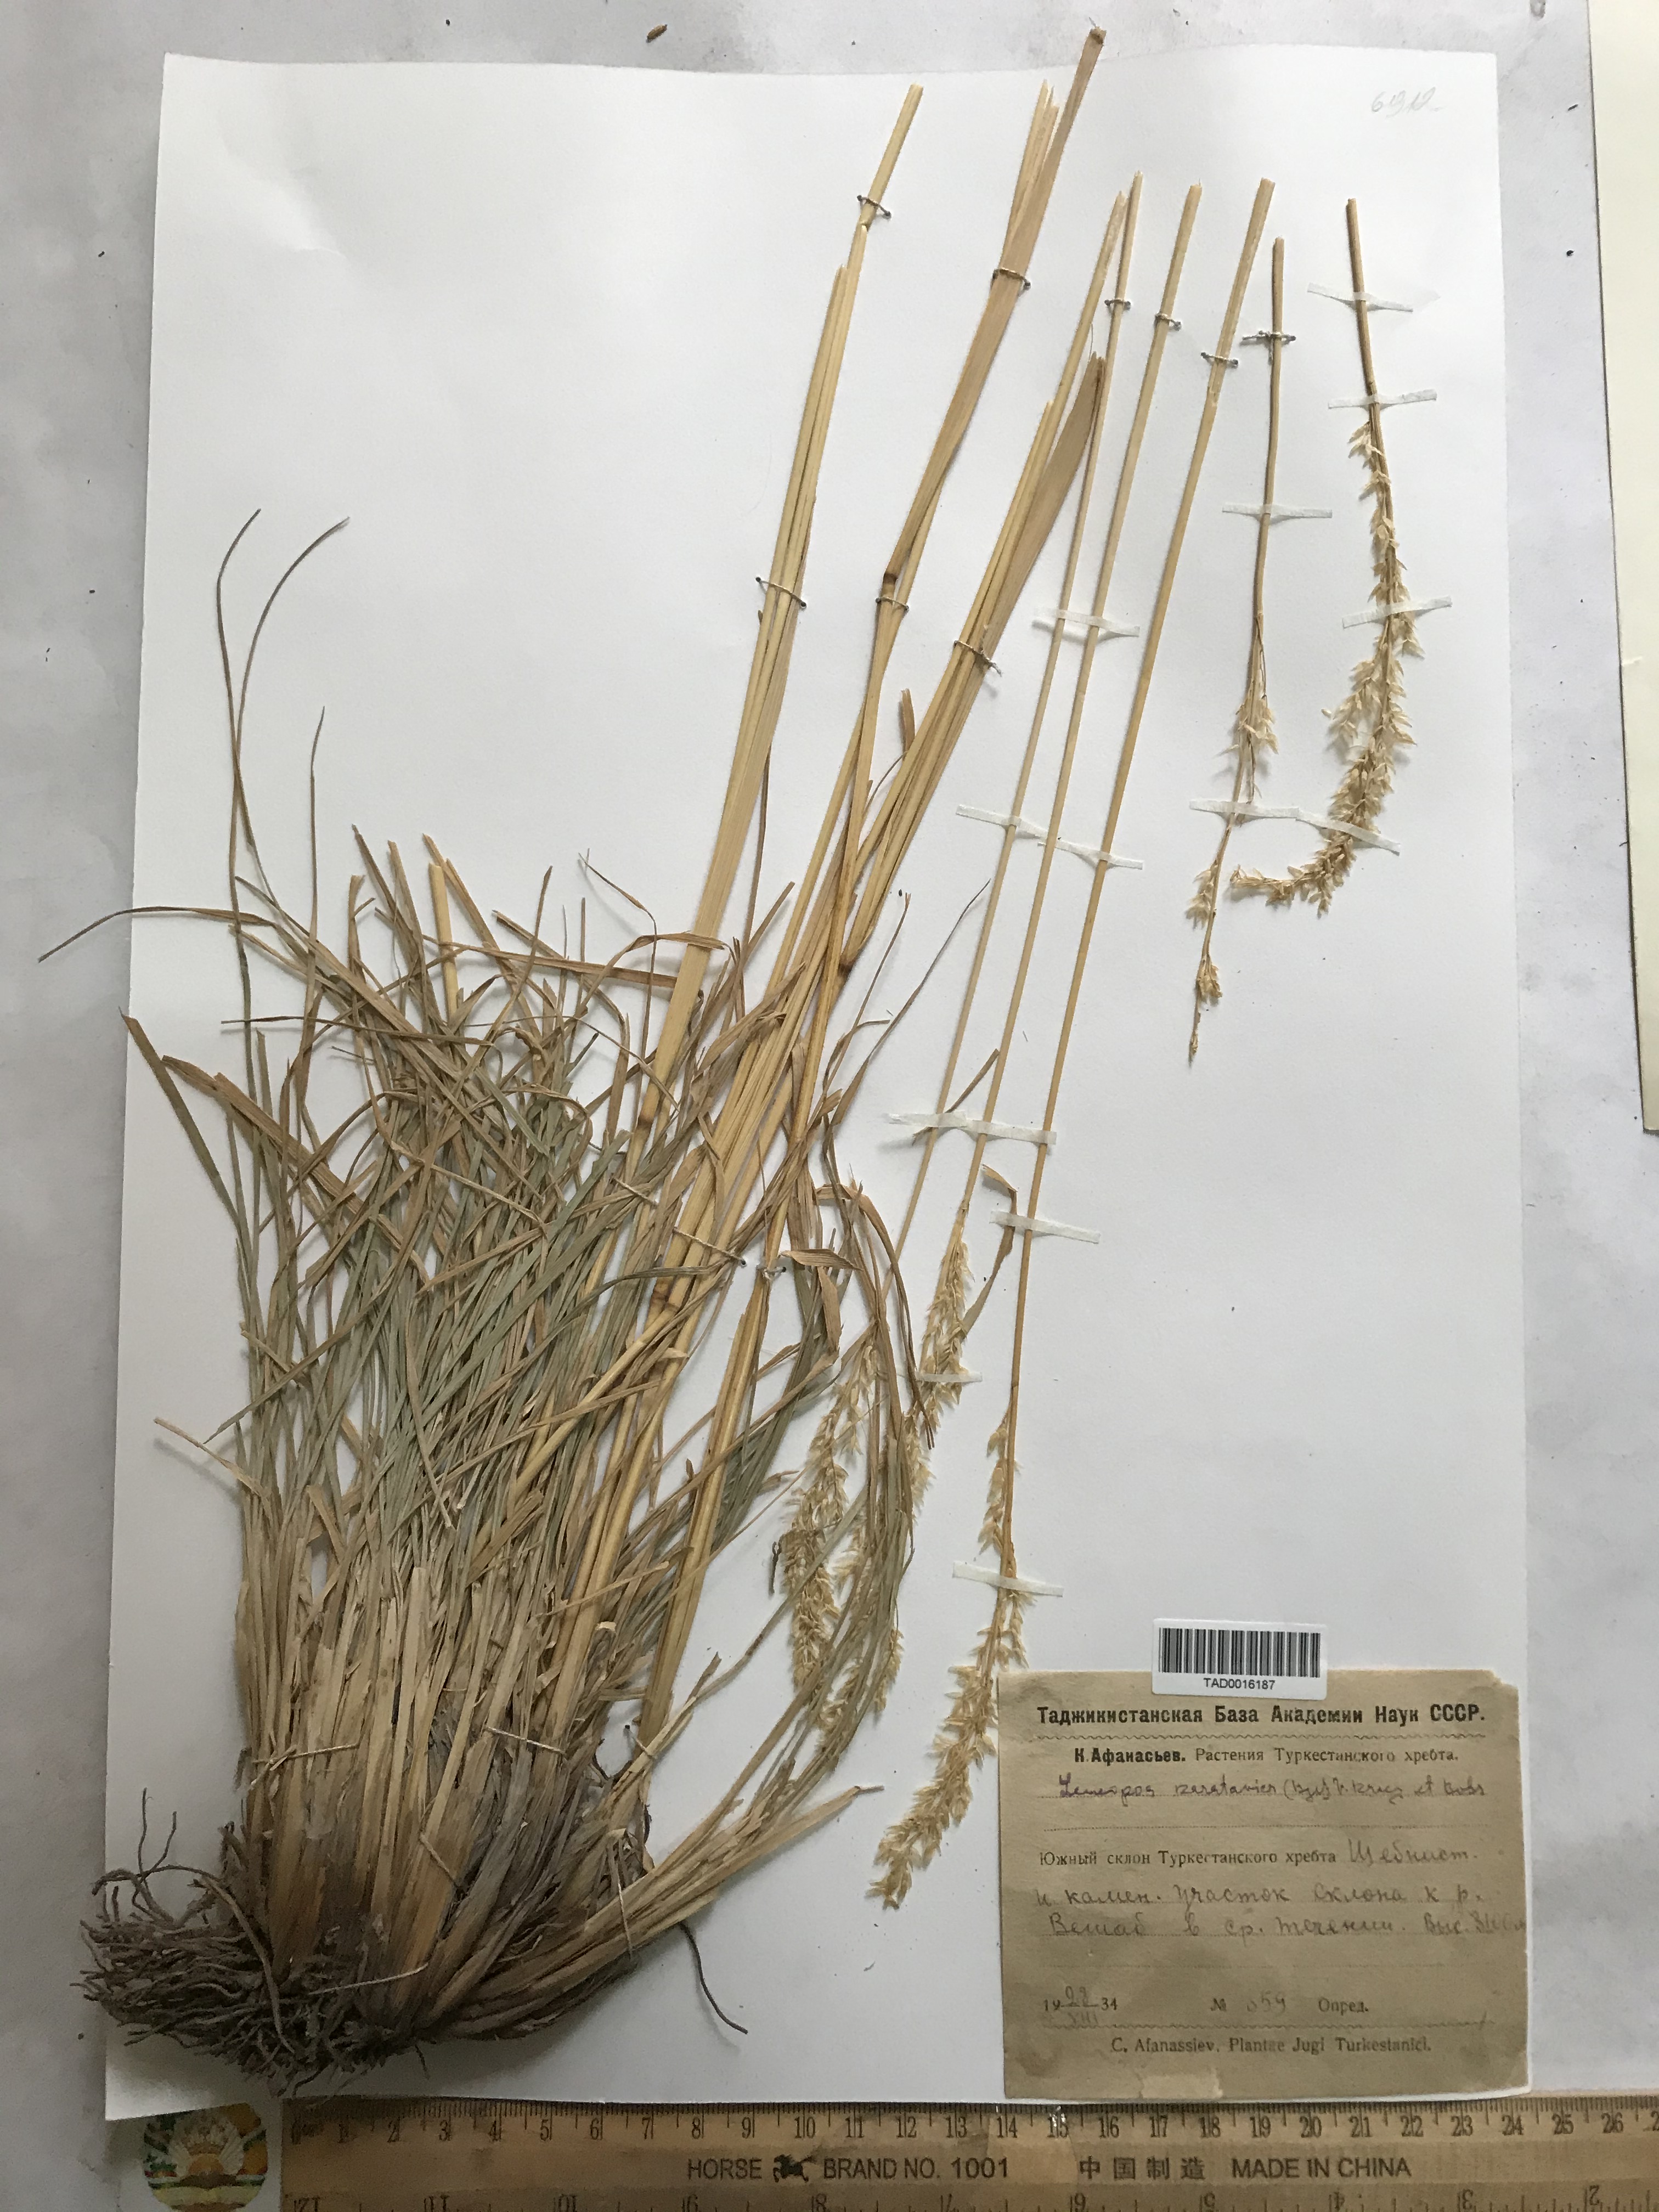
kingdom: Plantae
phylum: Tracheophyta
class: Liliopsida
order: Poales
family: Poaceae
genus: Festuca
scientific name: Festuca karatavica
